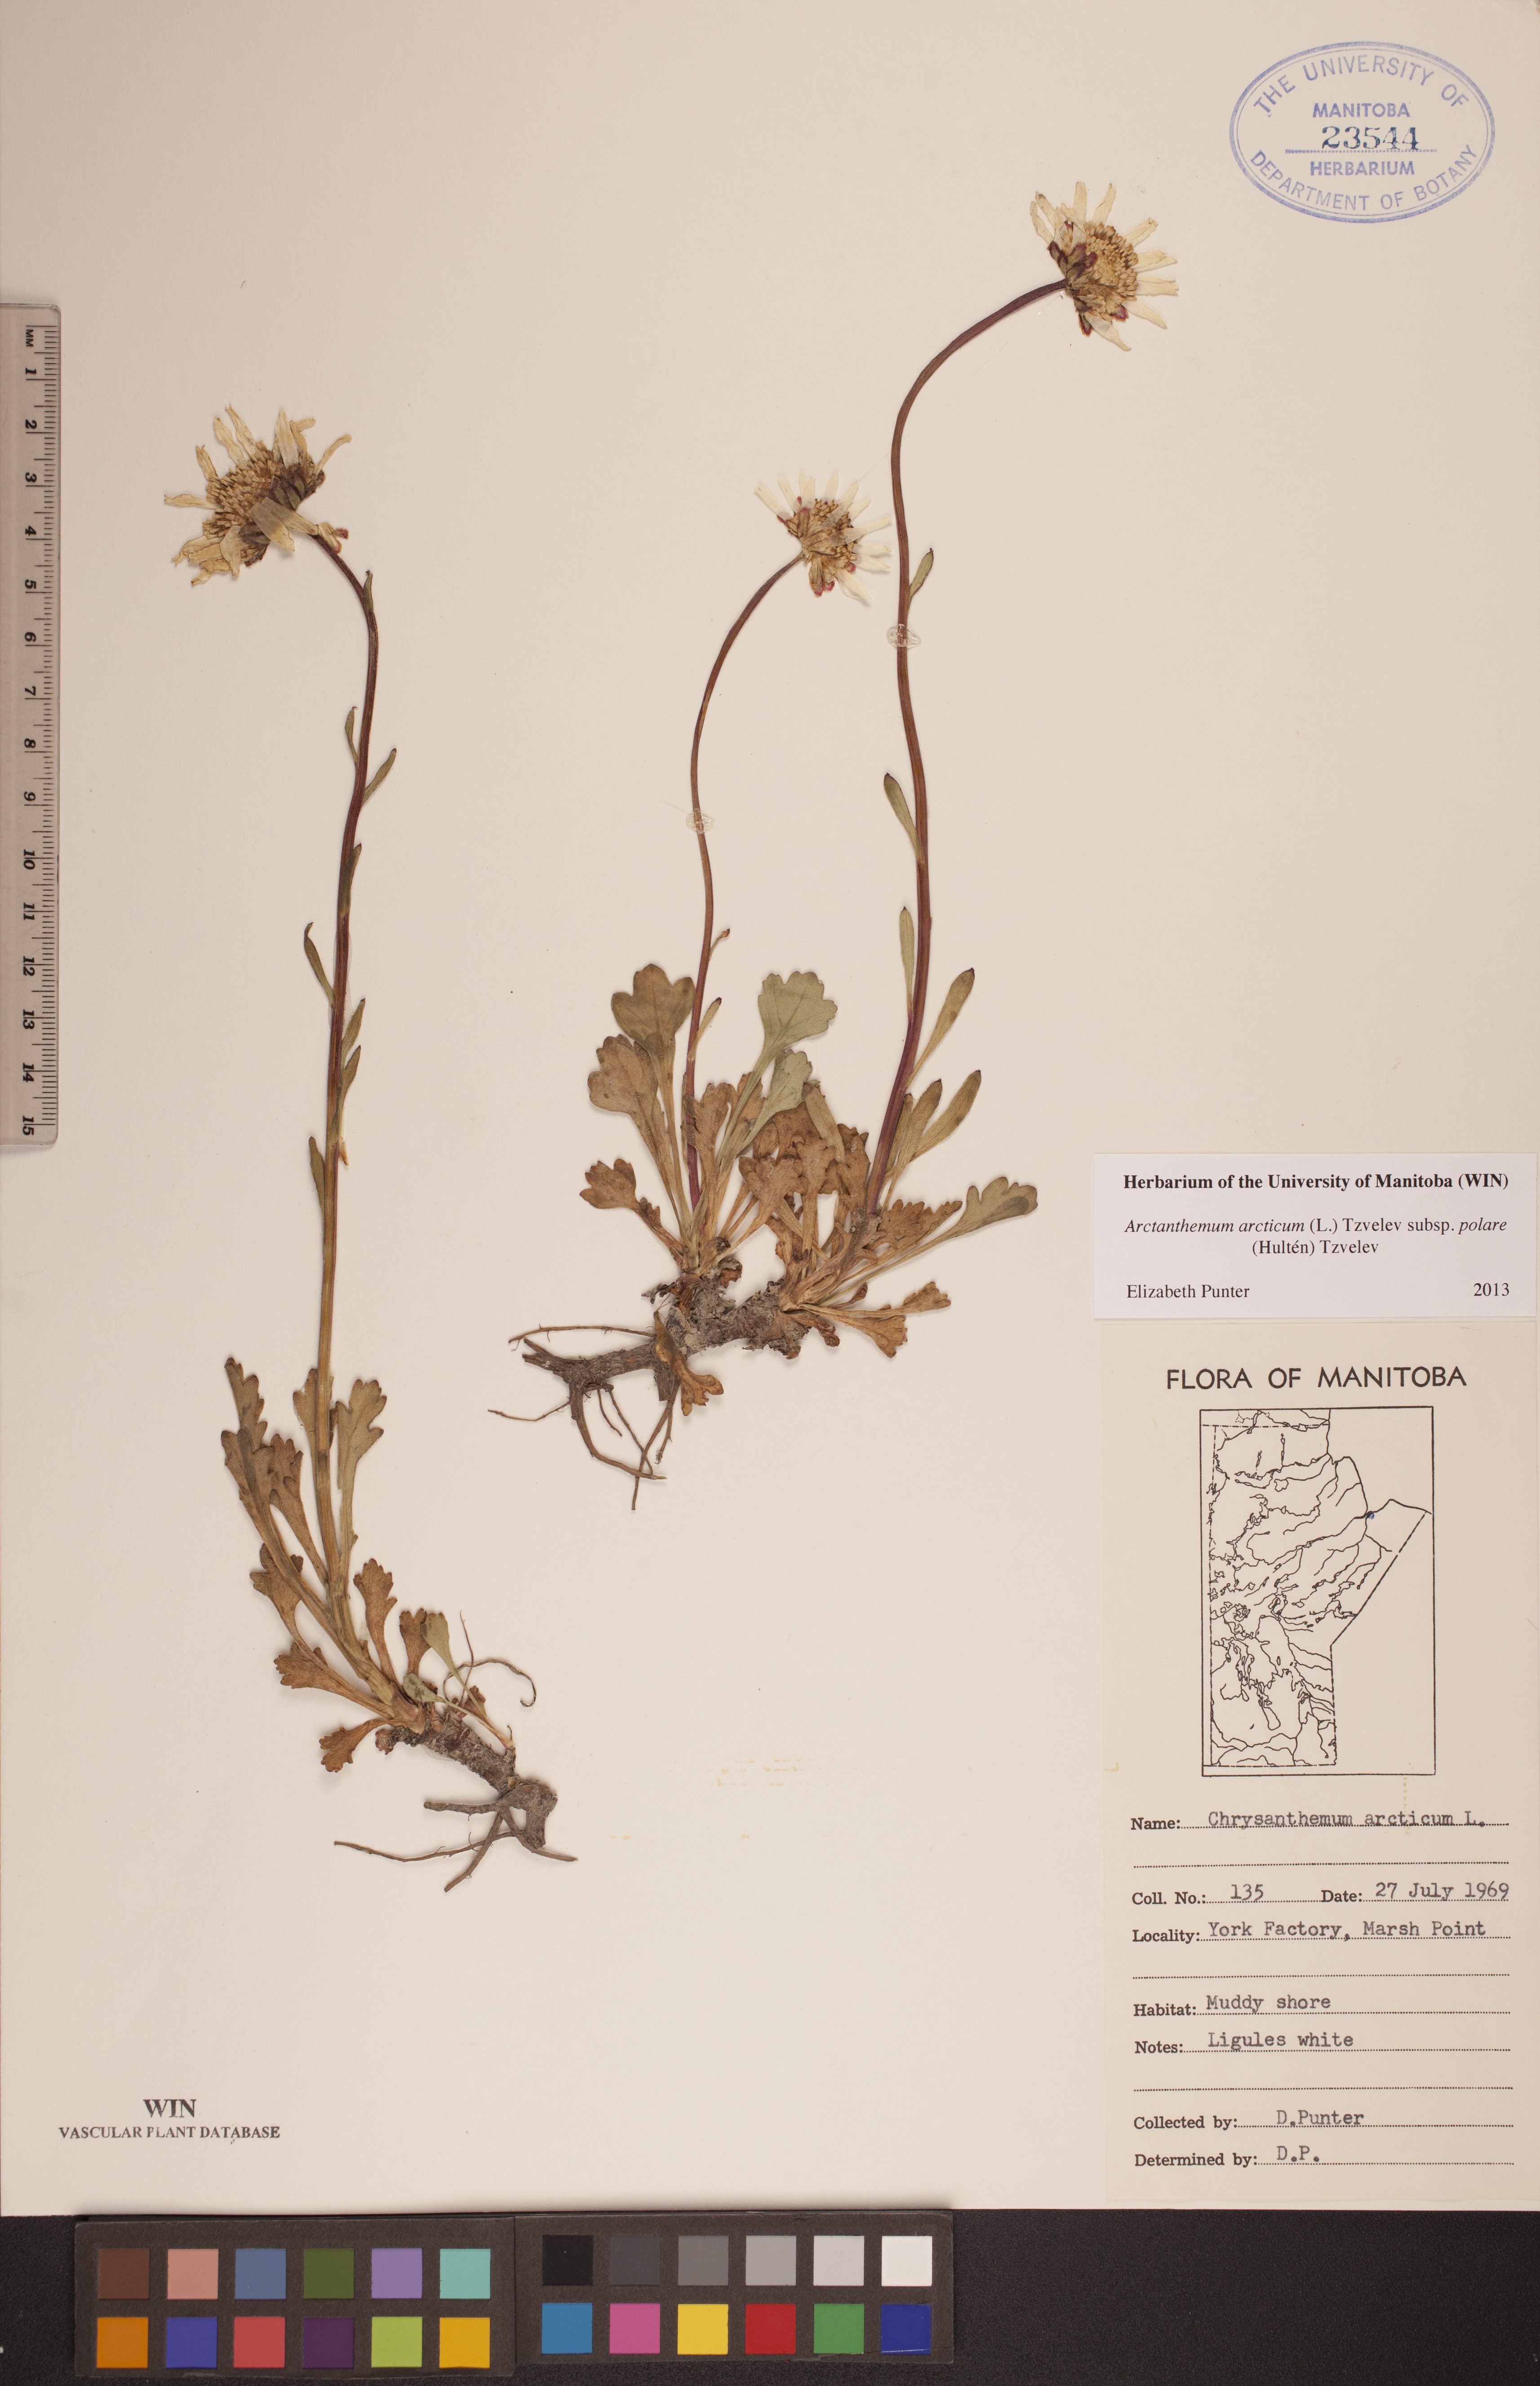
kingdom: Plantae
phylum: Tracheophyta
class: Magnoliopsida
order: Asterales
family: Asteraceae
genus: Arctanthemum
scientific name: Arctanthemum arcticum
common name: Arctic daisy
